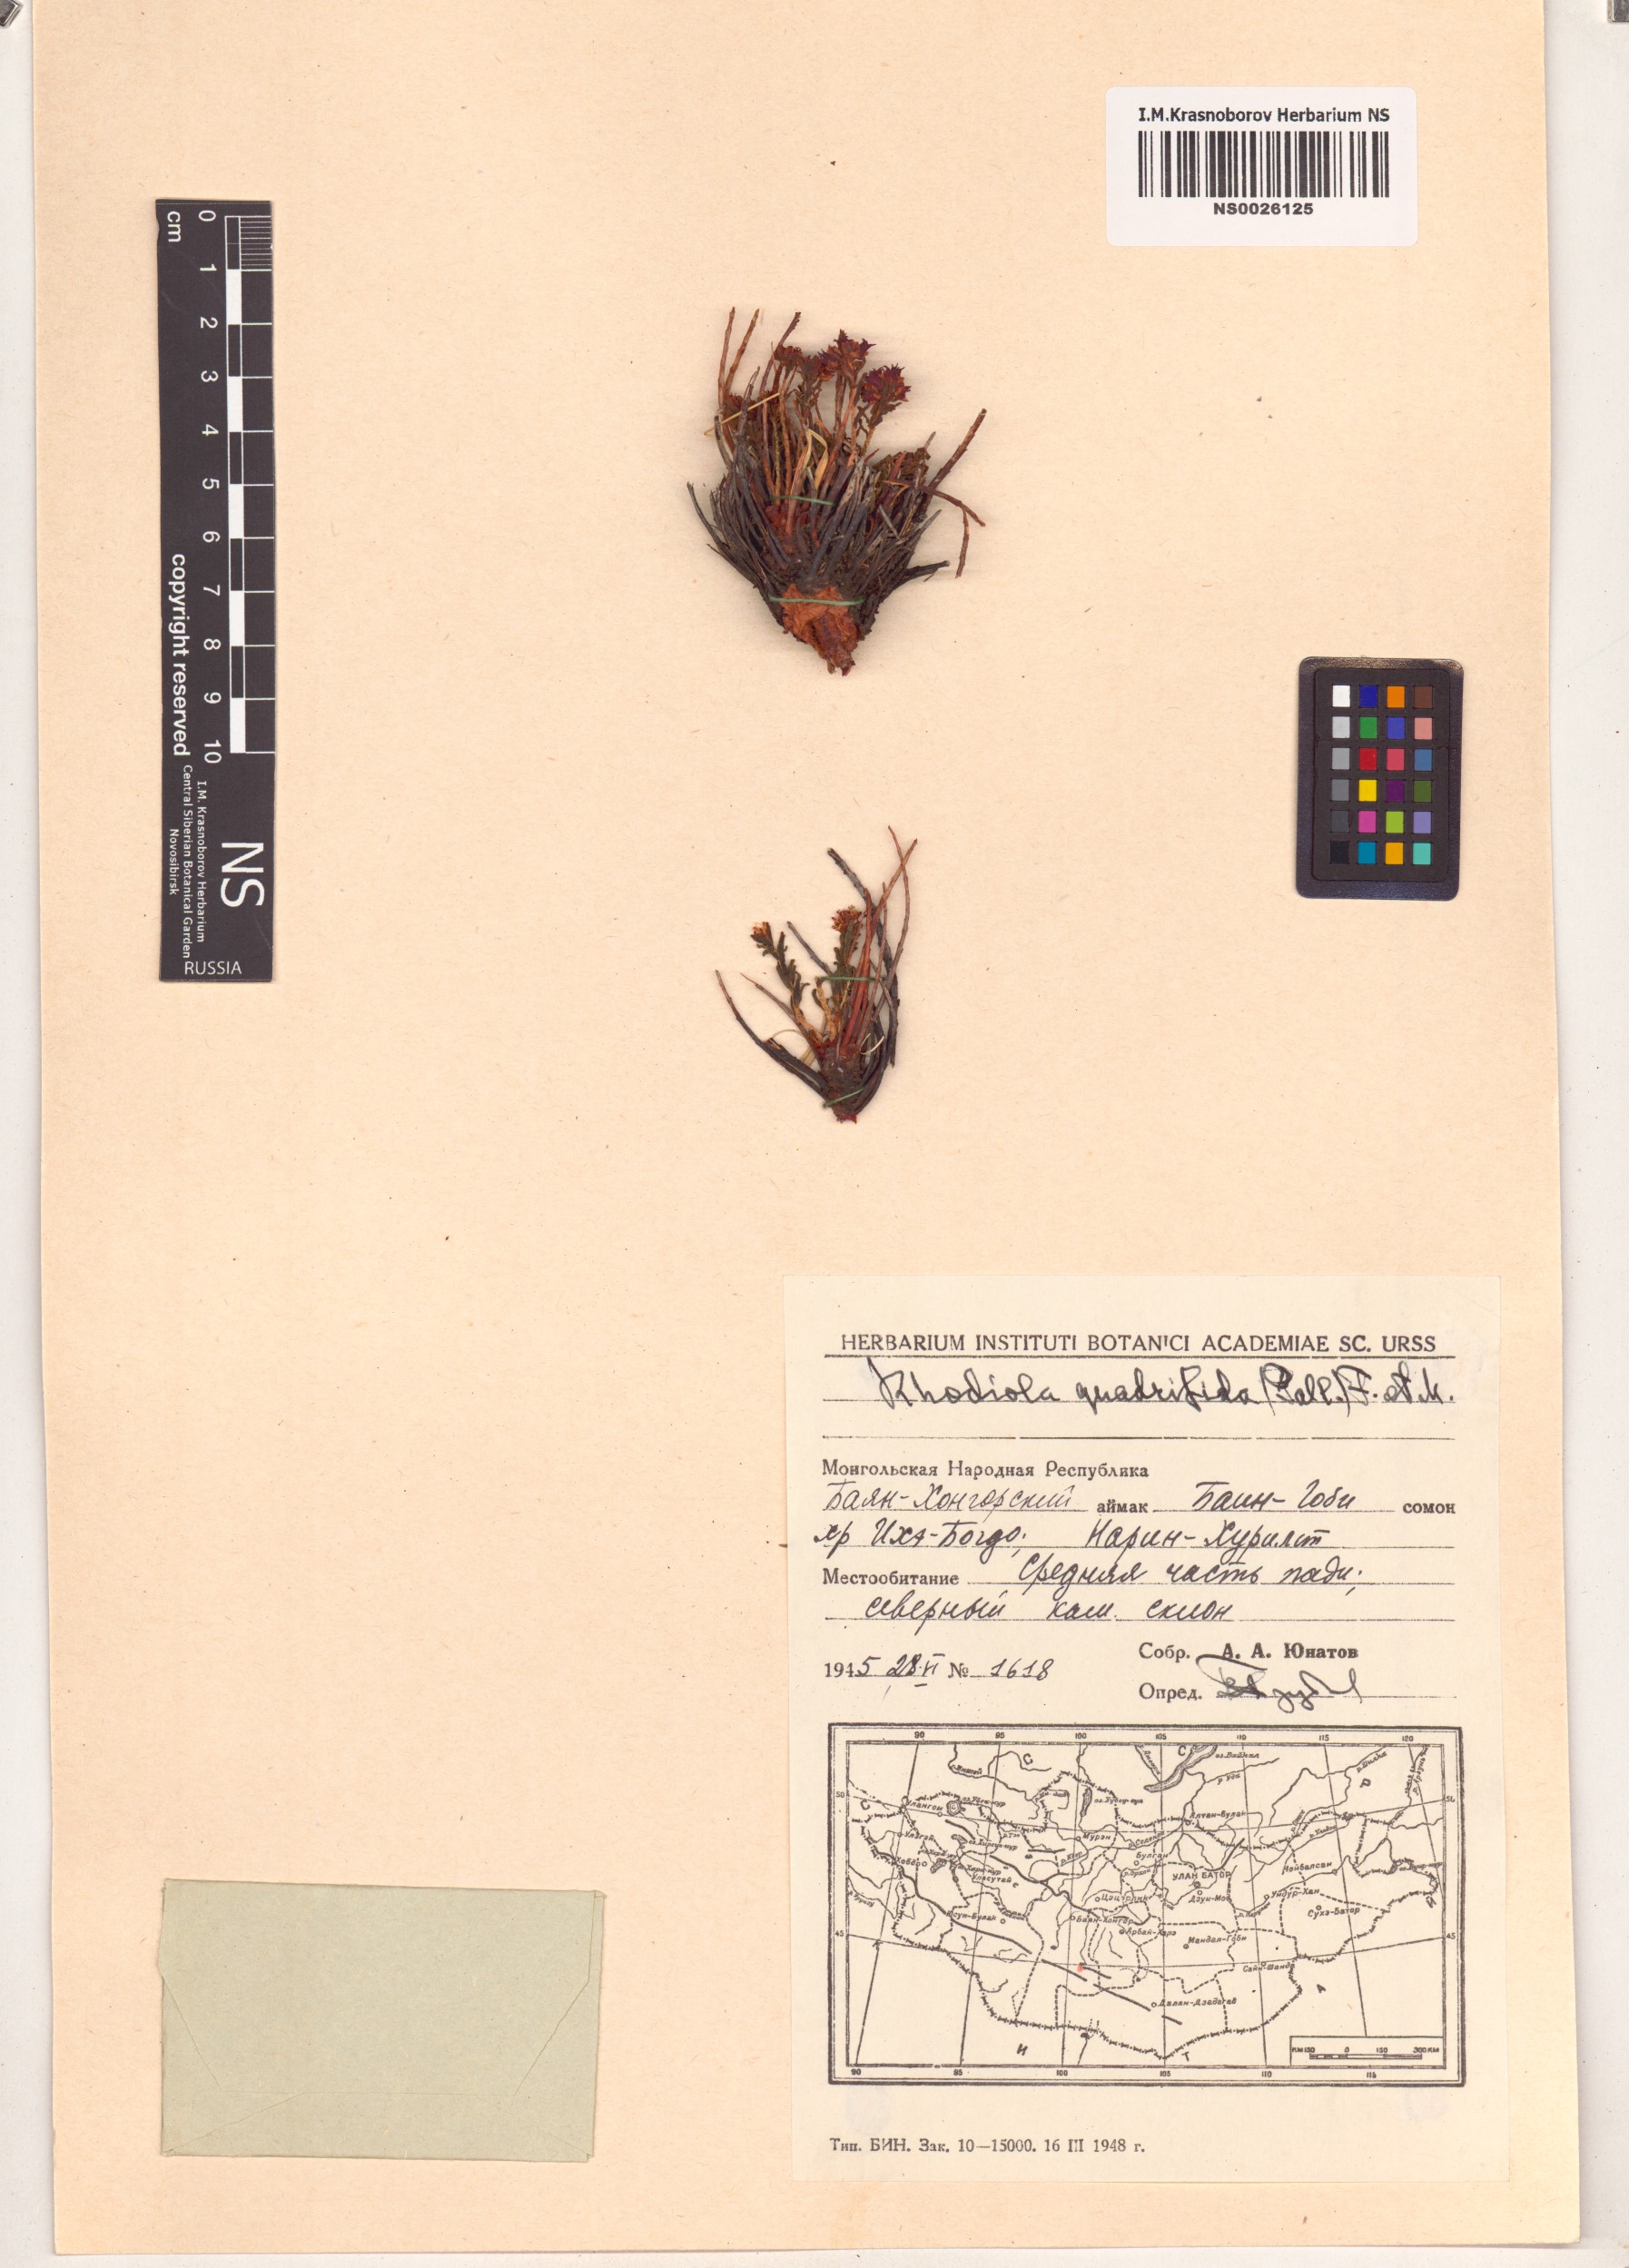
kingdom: Plantae
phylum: Tracheophyta
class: Magnoliopsida
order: Saxifragales
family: Crassulaceae
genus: Rhodiola
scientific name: Rhodiola quadrifida
